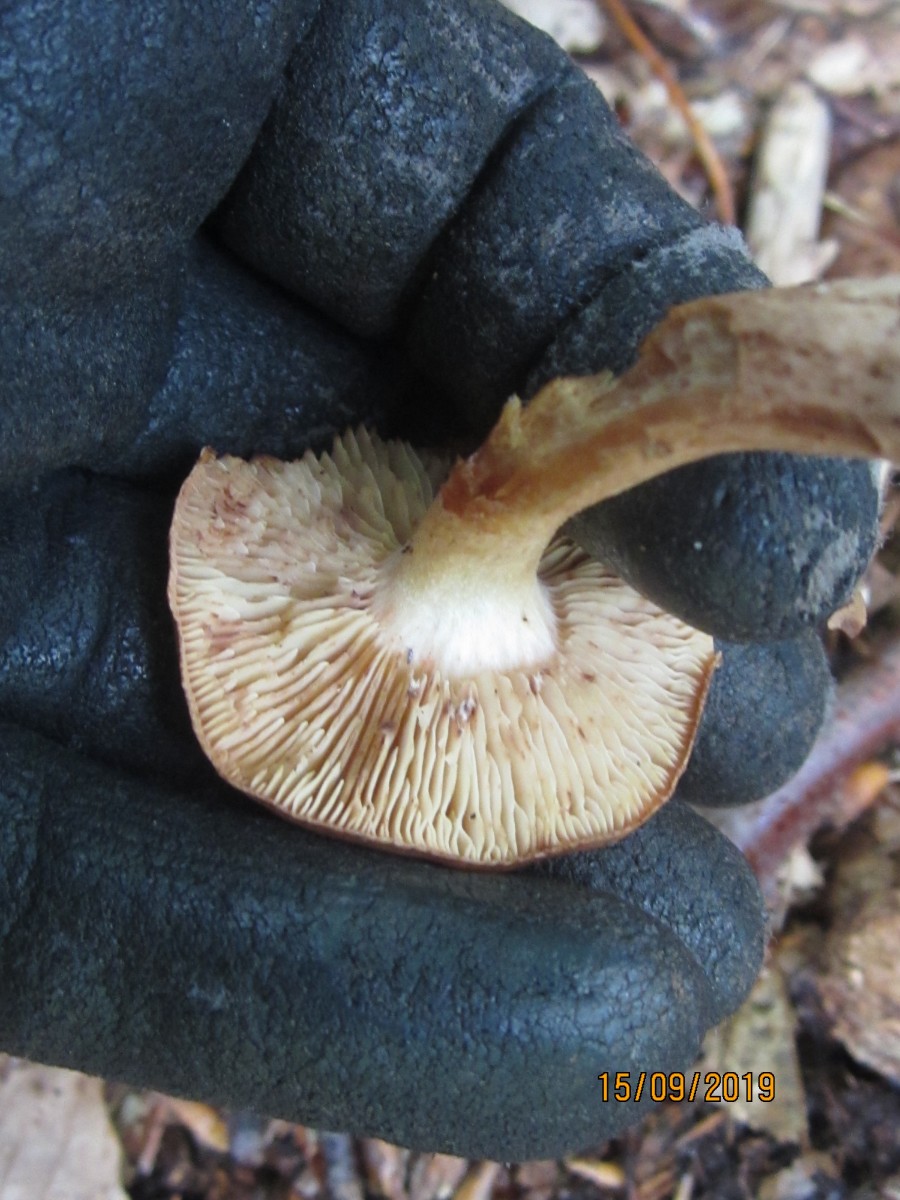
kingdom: Fungi
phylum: Basidiomycota
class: Agaricomycetes
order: Agaricales
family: Tricholomataceae
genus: Tricholoma
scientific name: Tricholoma ustale
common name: sveden ridderhat
